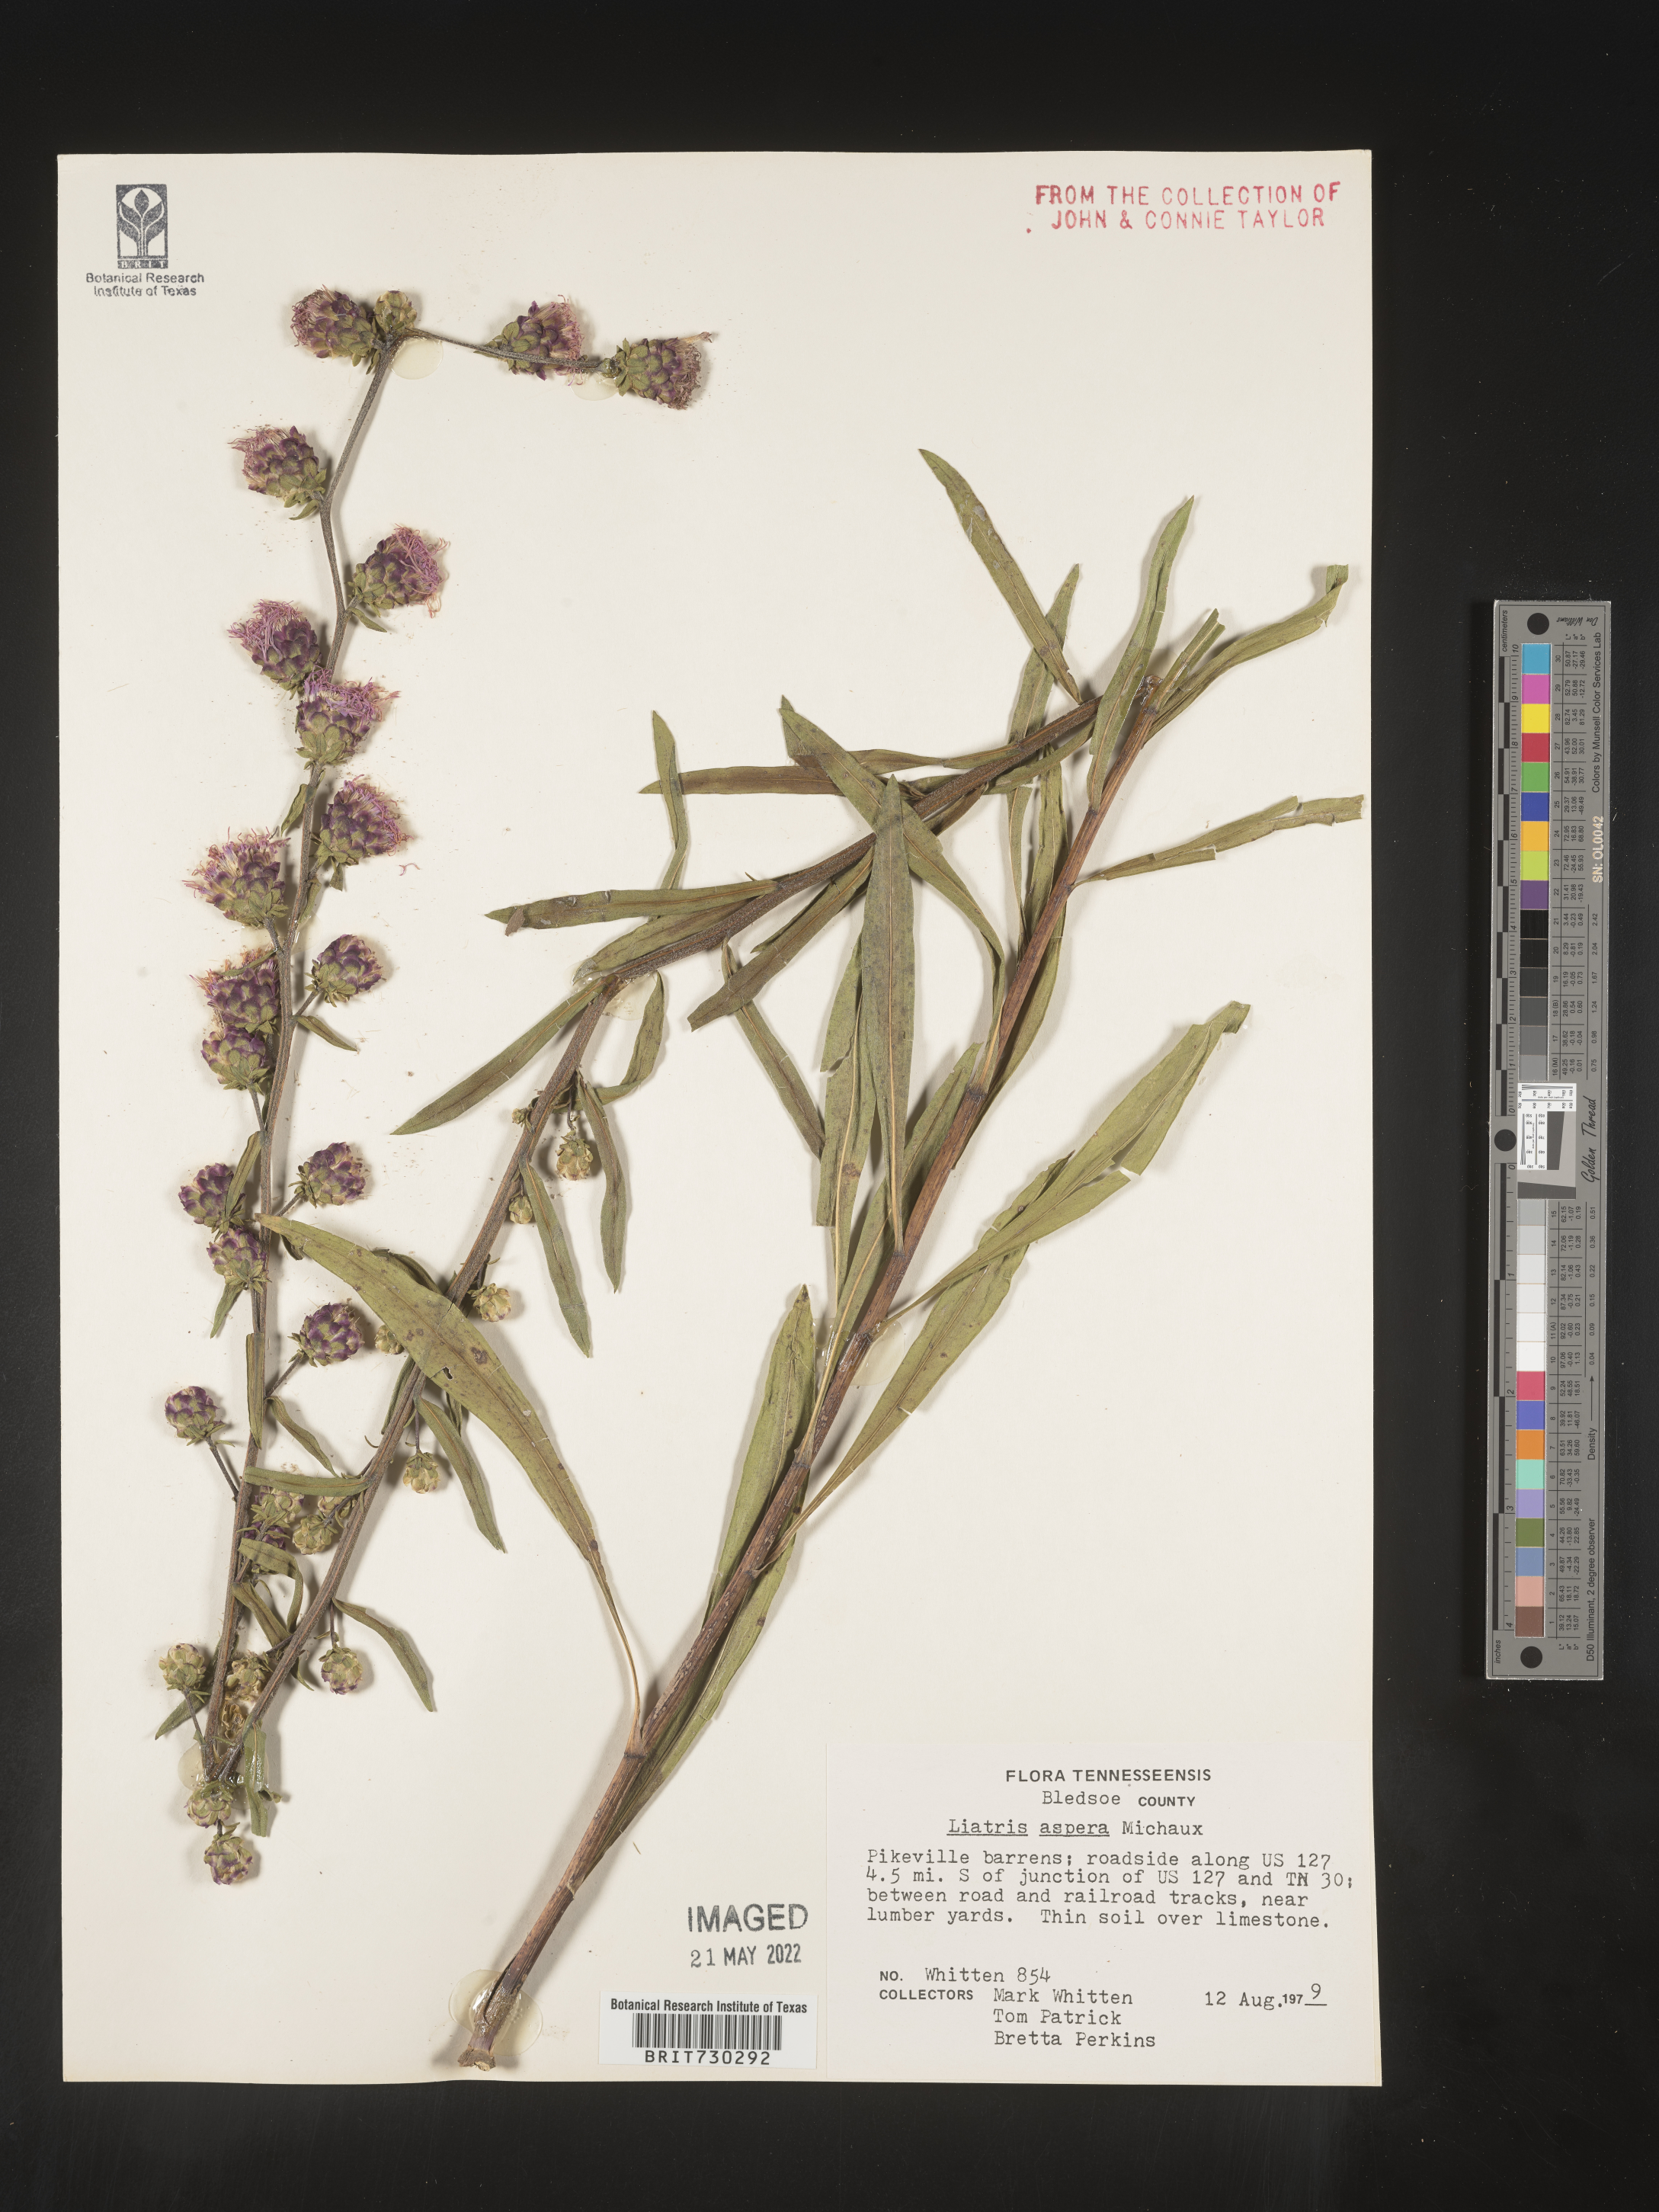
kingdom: Plantae
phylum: Tracheophyta
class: Magnoliopsida
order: Asterales
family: Asteraceae
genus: Liatris
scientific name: Liatris aspera
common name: Lacerate blazing-star
